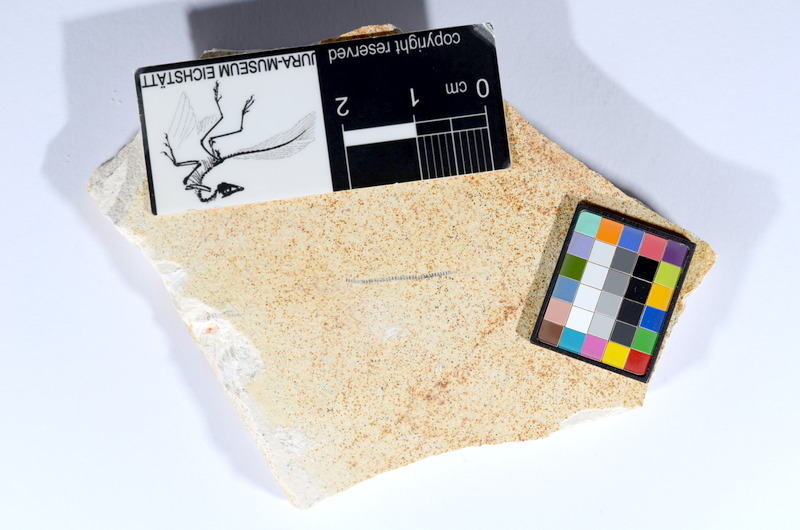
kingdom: Animalia
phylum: Chordata
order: Salmoniformes
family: Orthogonikleithridae
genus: Orthogonikleithrus
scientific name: Orthogonikleithrus hoelli
